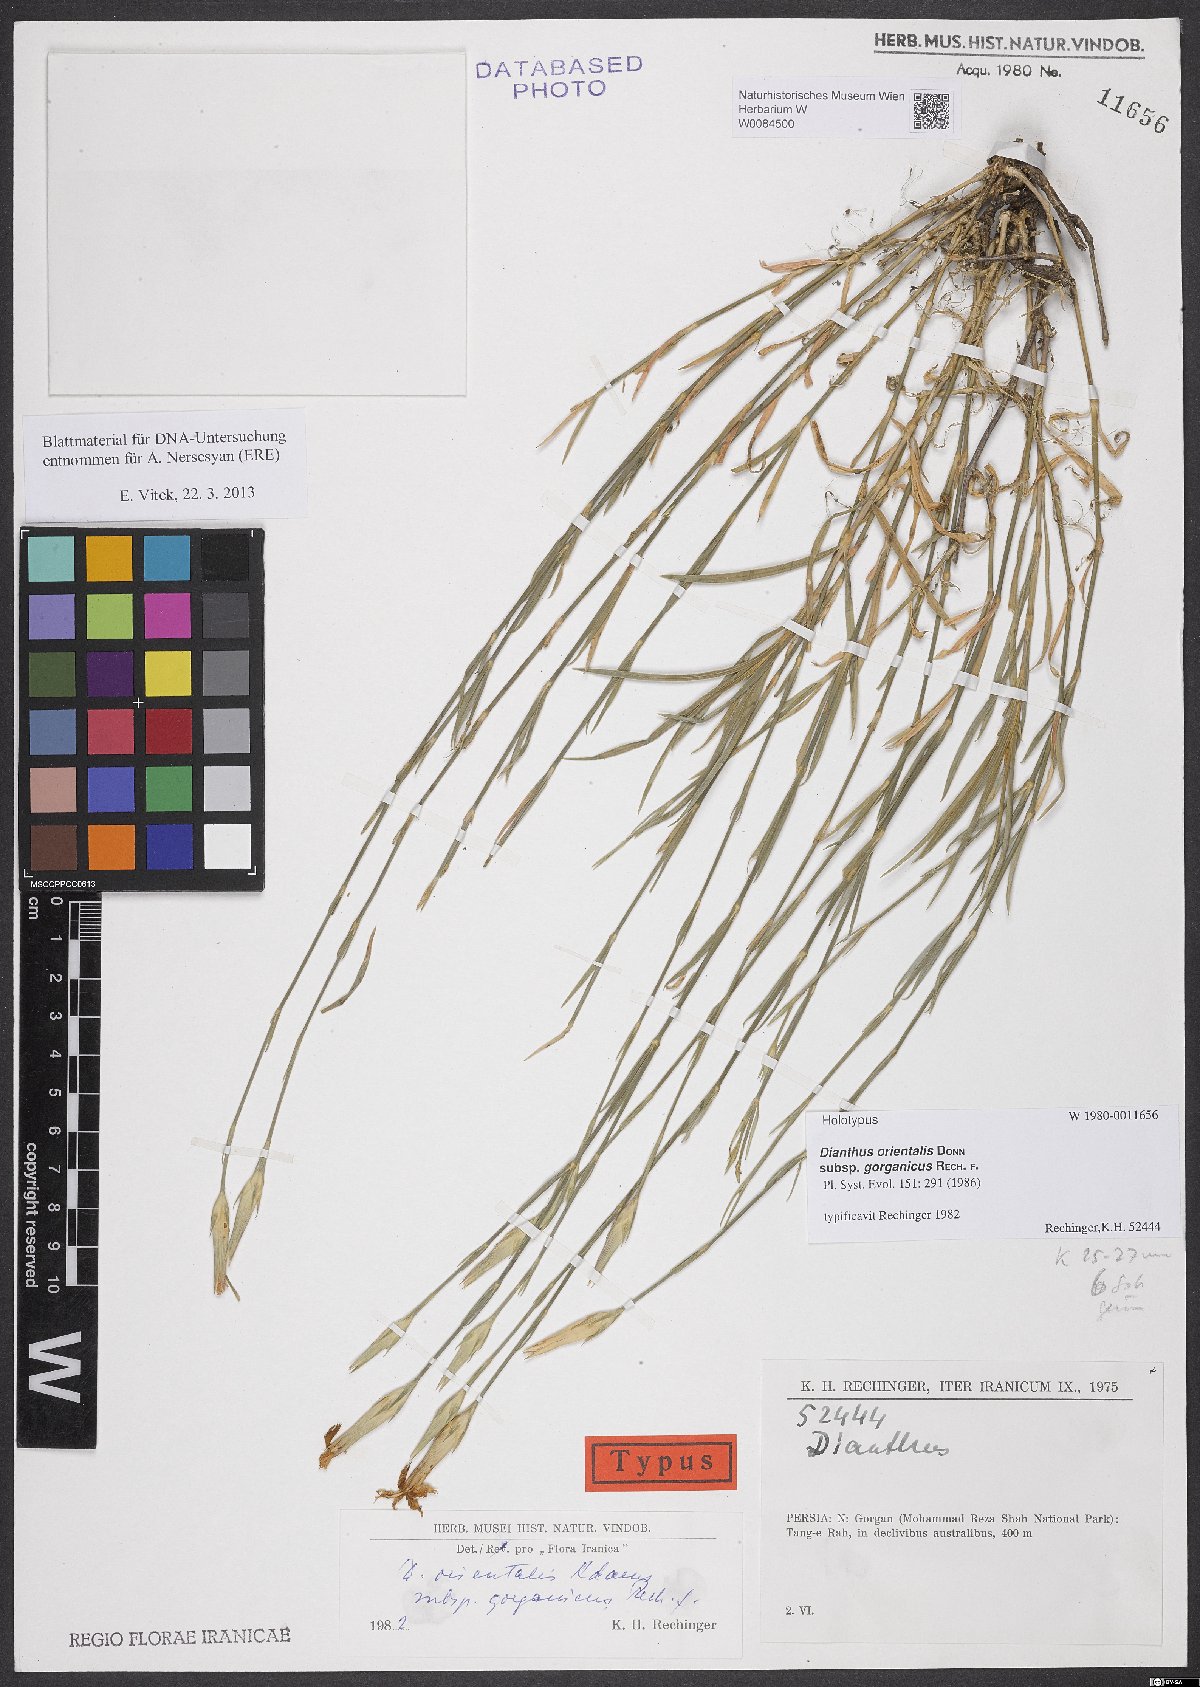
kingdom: Plantae
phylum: Tracheophyta
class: Magnoliopsida
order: Caryophyllales
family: Caryophyllaceae
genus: Dianthus
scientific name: Dianthus orientalis
